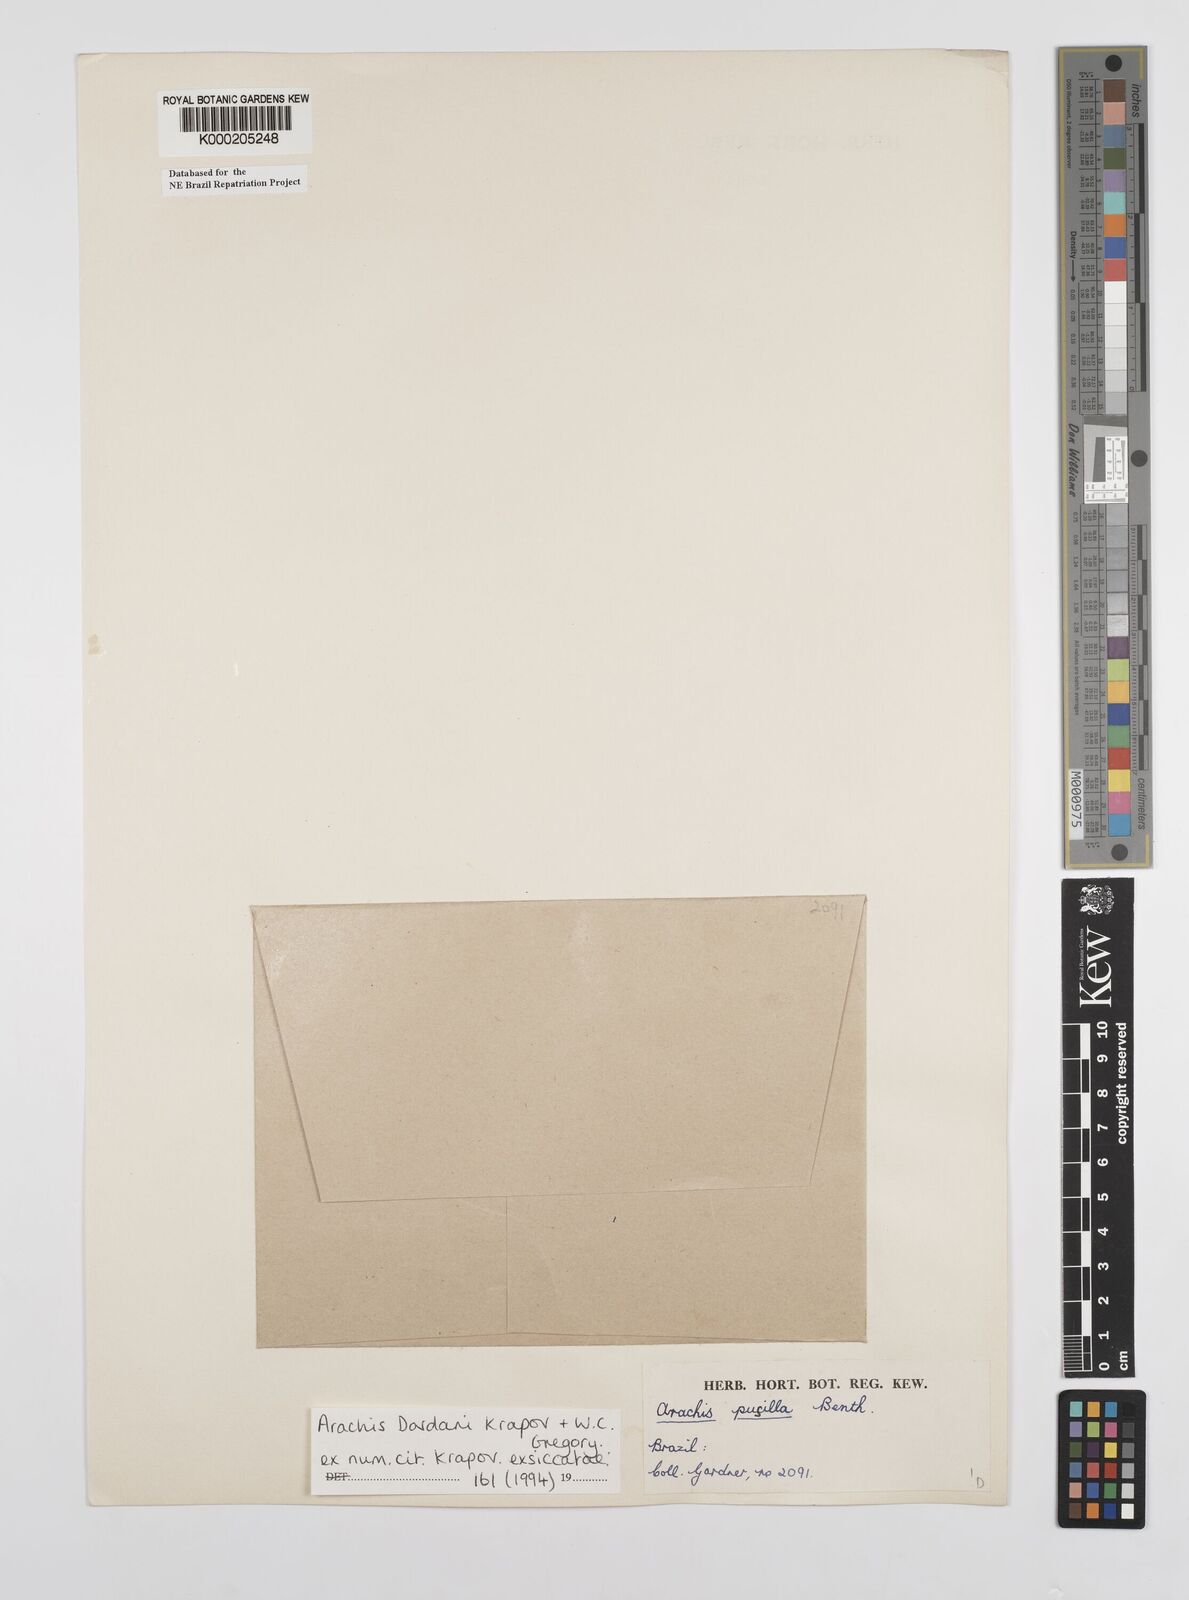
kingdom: Plantae
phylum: Tracheophyta
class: Magnoliopsida
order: Fabales
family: Fabaceae
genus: Arachis
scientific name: Arachis
